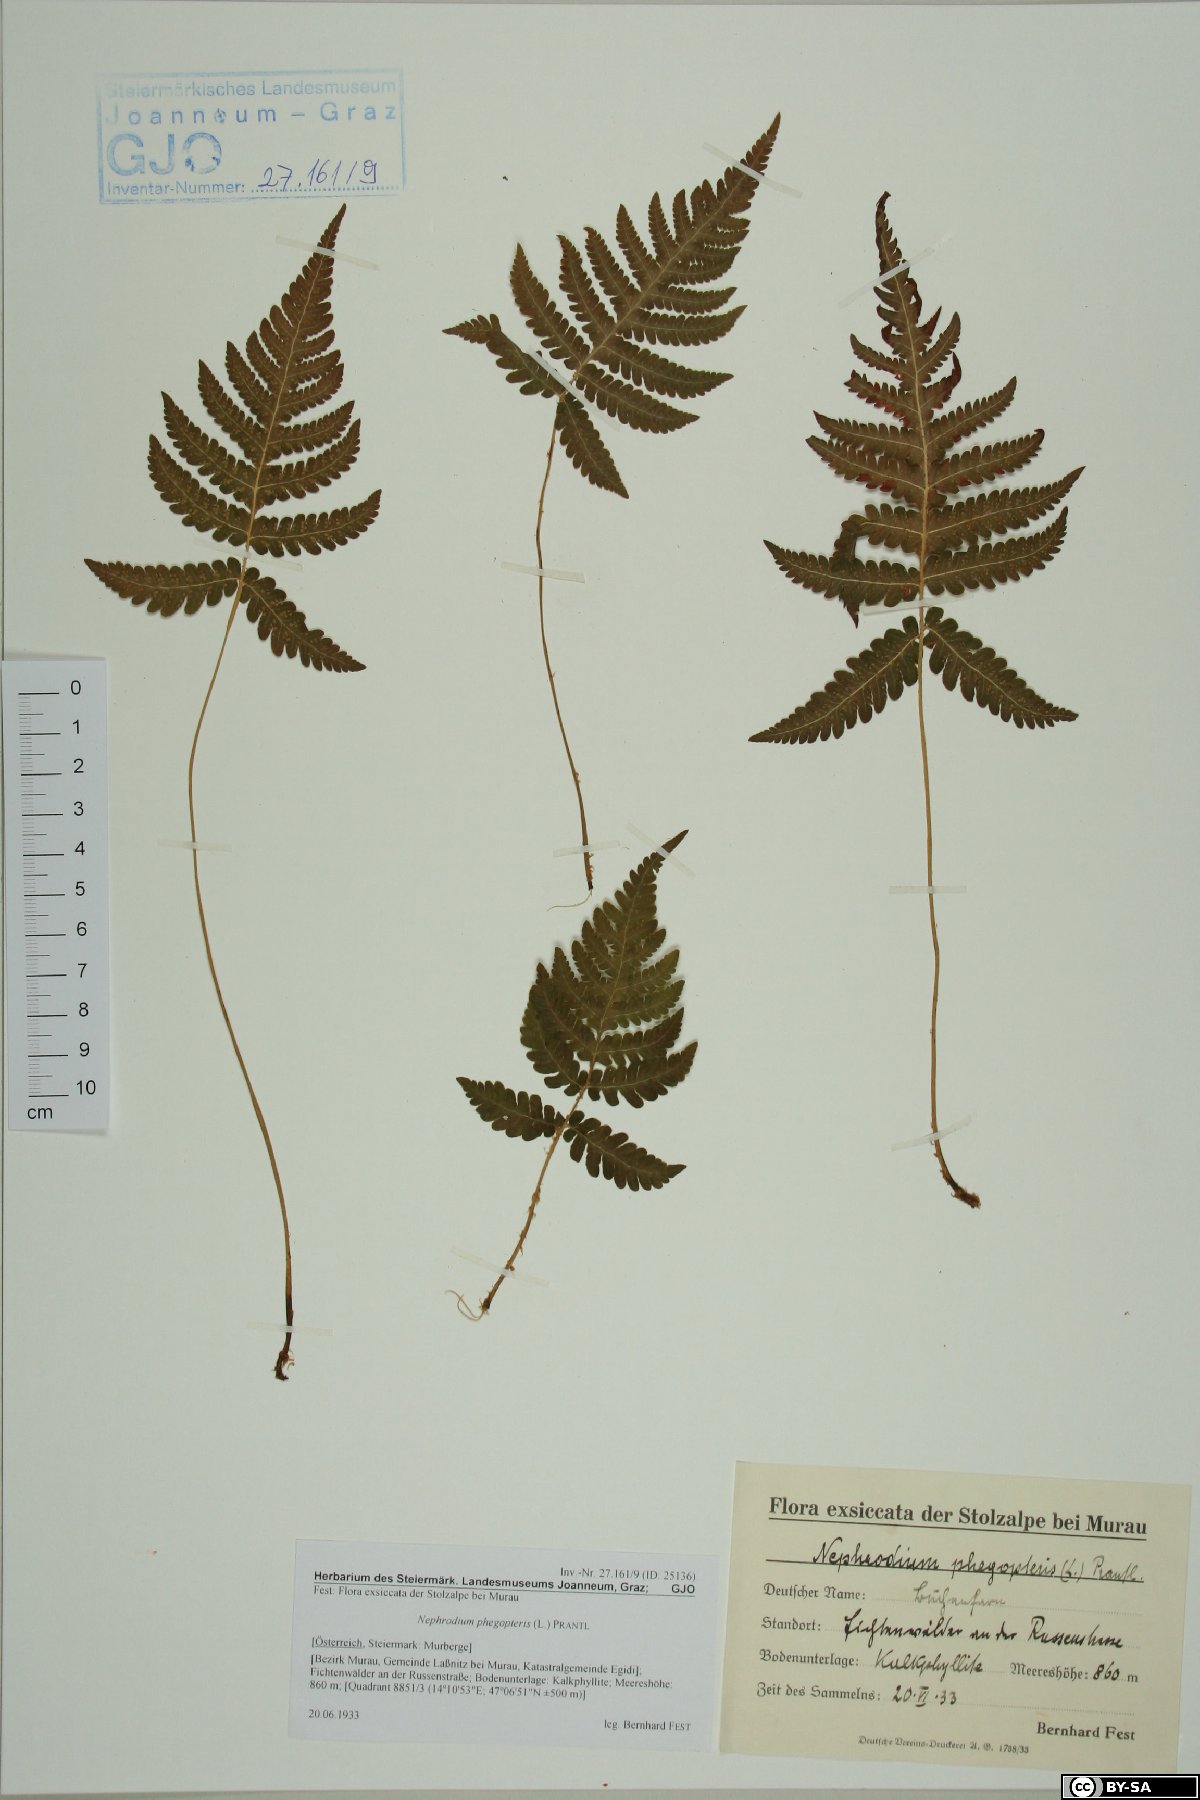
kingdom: Plantae
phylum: Tracheophyta
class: Polypodiopsida
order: Polypodiales
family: Thelypteridaceae
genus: Phegopteris
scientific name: Phegopteris connectilis
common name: Beech fern
